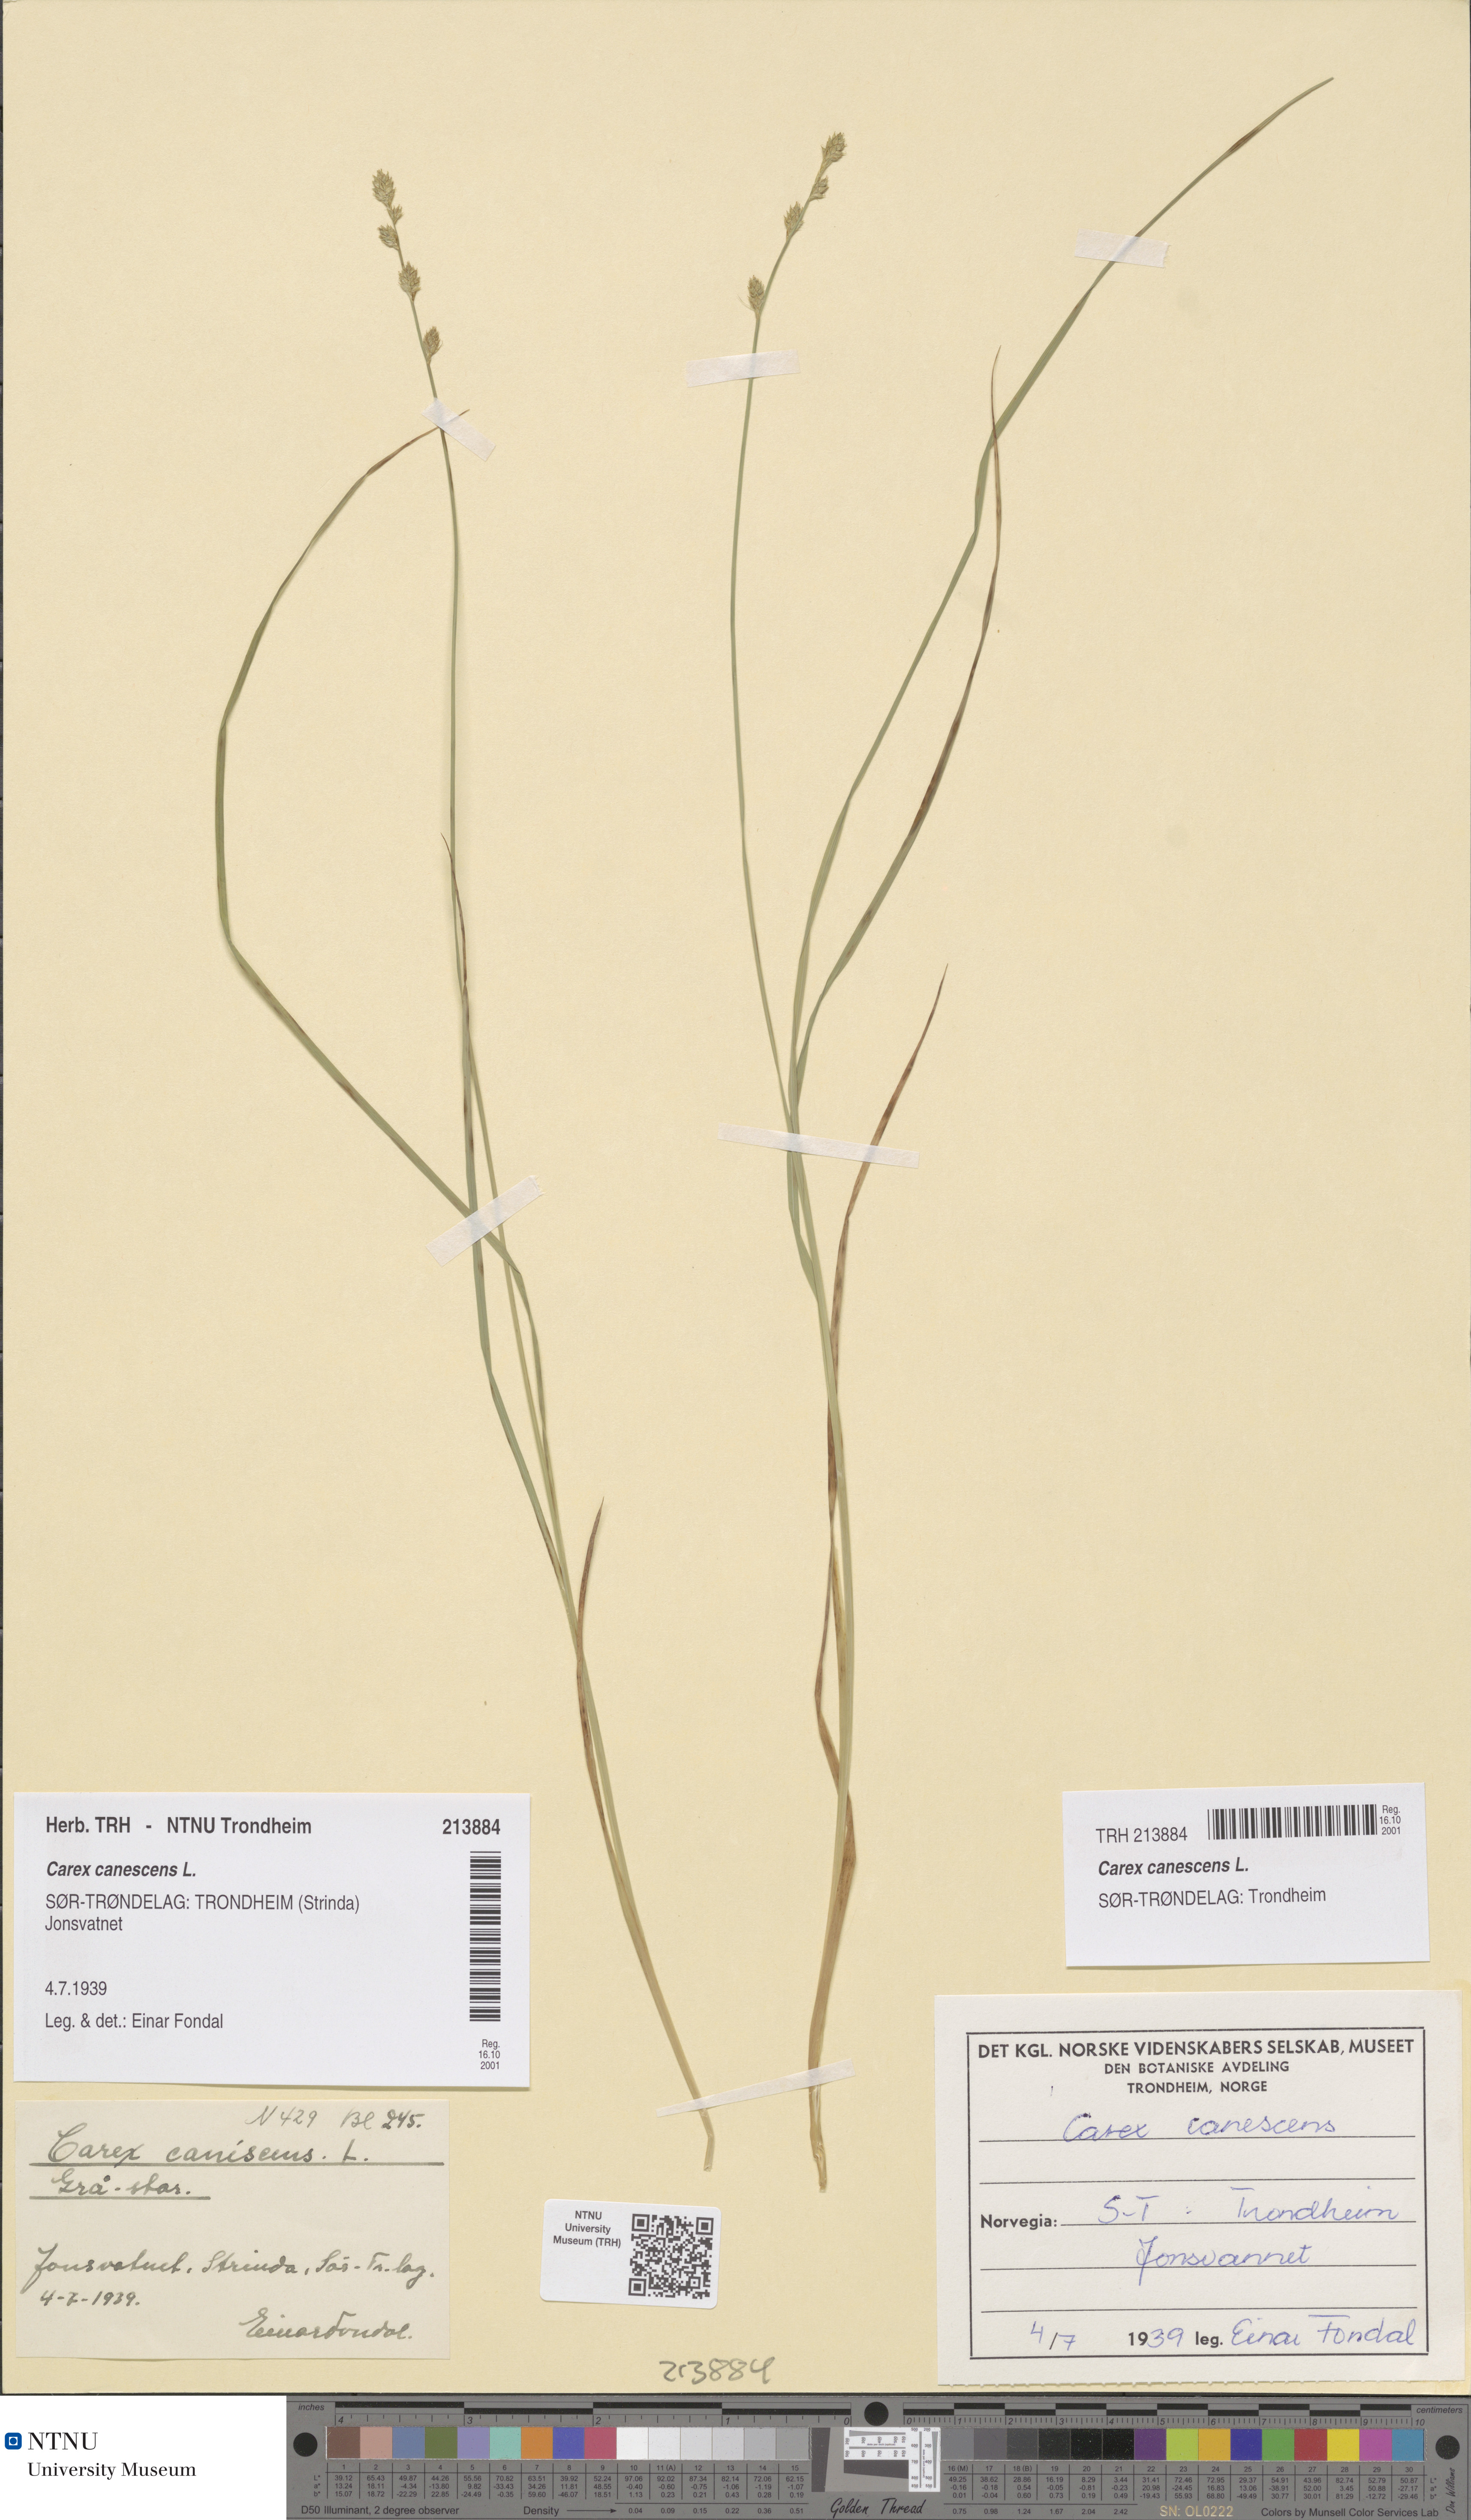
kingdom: Plantae
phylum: Tracheophyta
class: Liliopsida
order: Poales
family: Cyperaceae
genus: Carex
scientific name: Carex canescens
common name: White sedge
